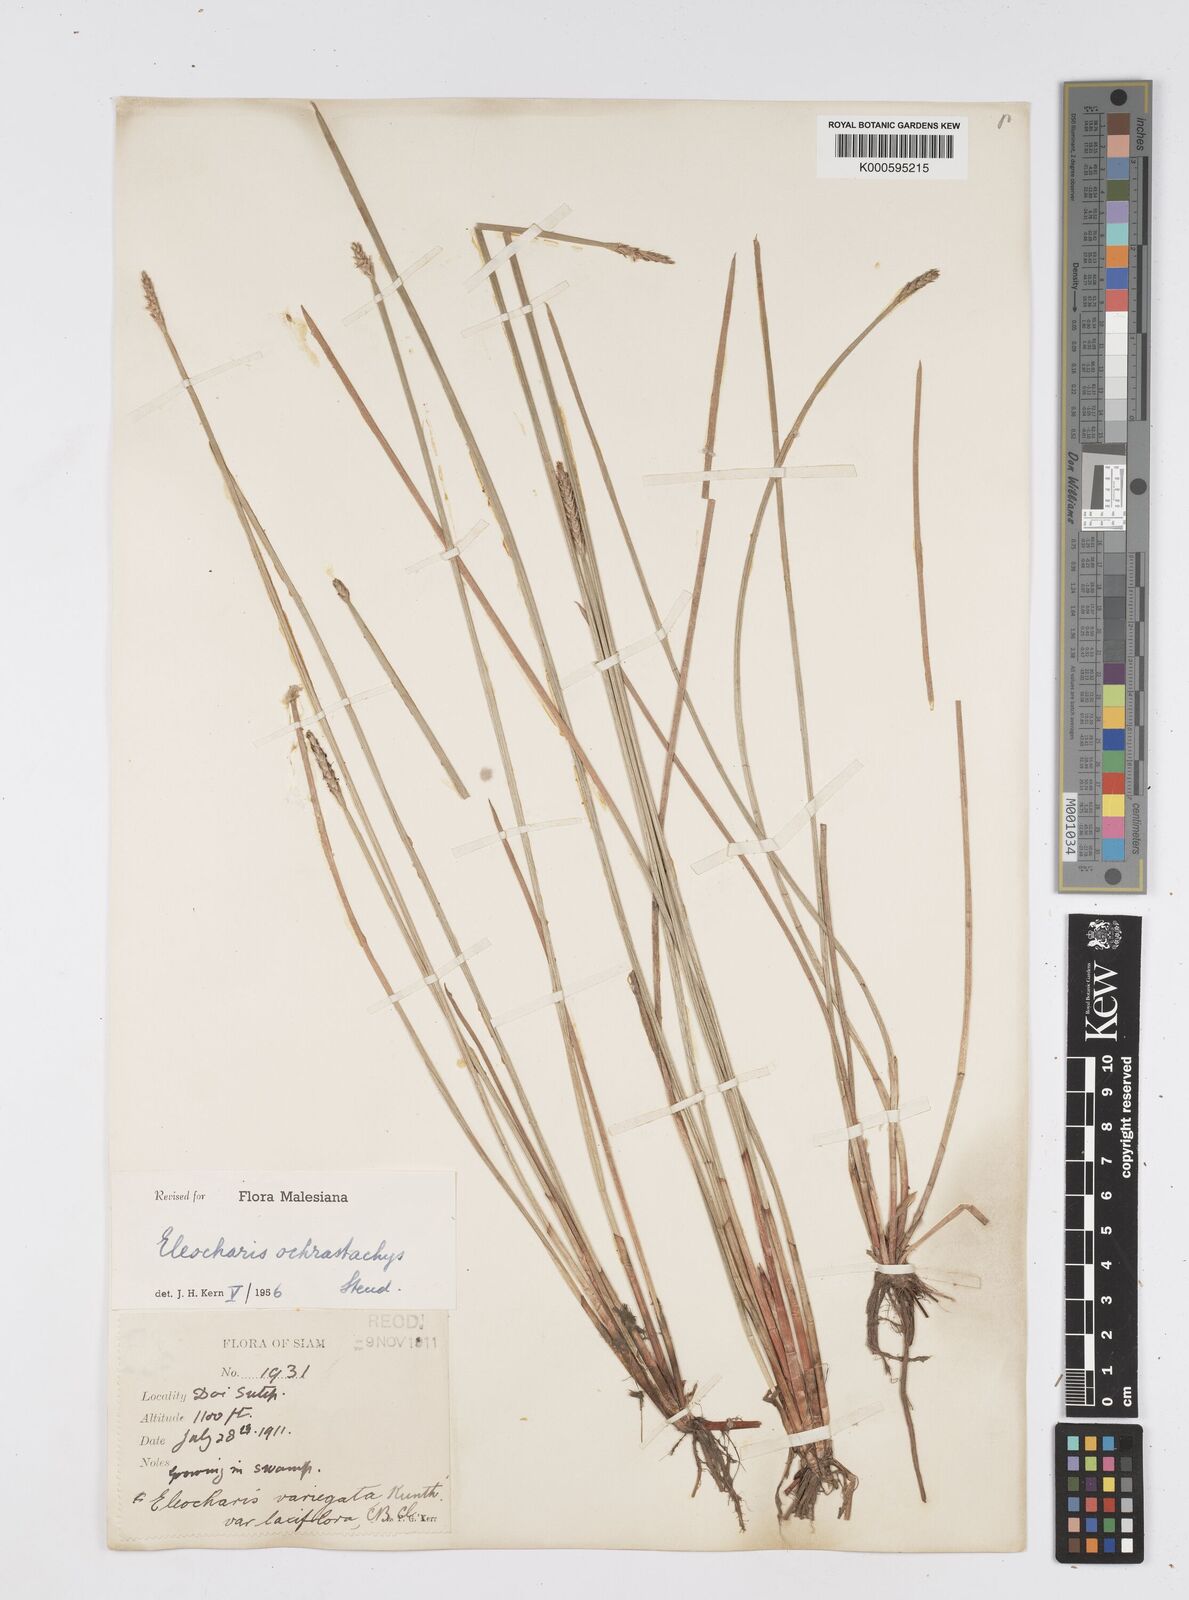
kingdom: Plantae
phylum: Tracheophyta
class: Liliopsida
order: Poales
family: Cyperaceae
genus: Eleocharis
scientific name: Eleocharis ochrostachys
